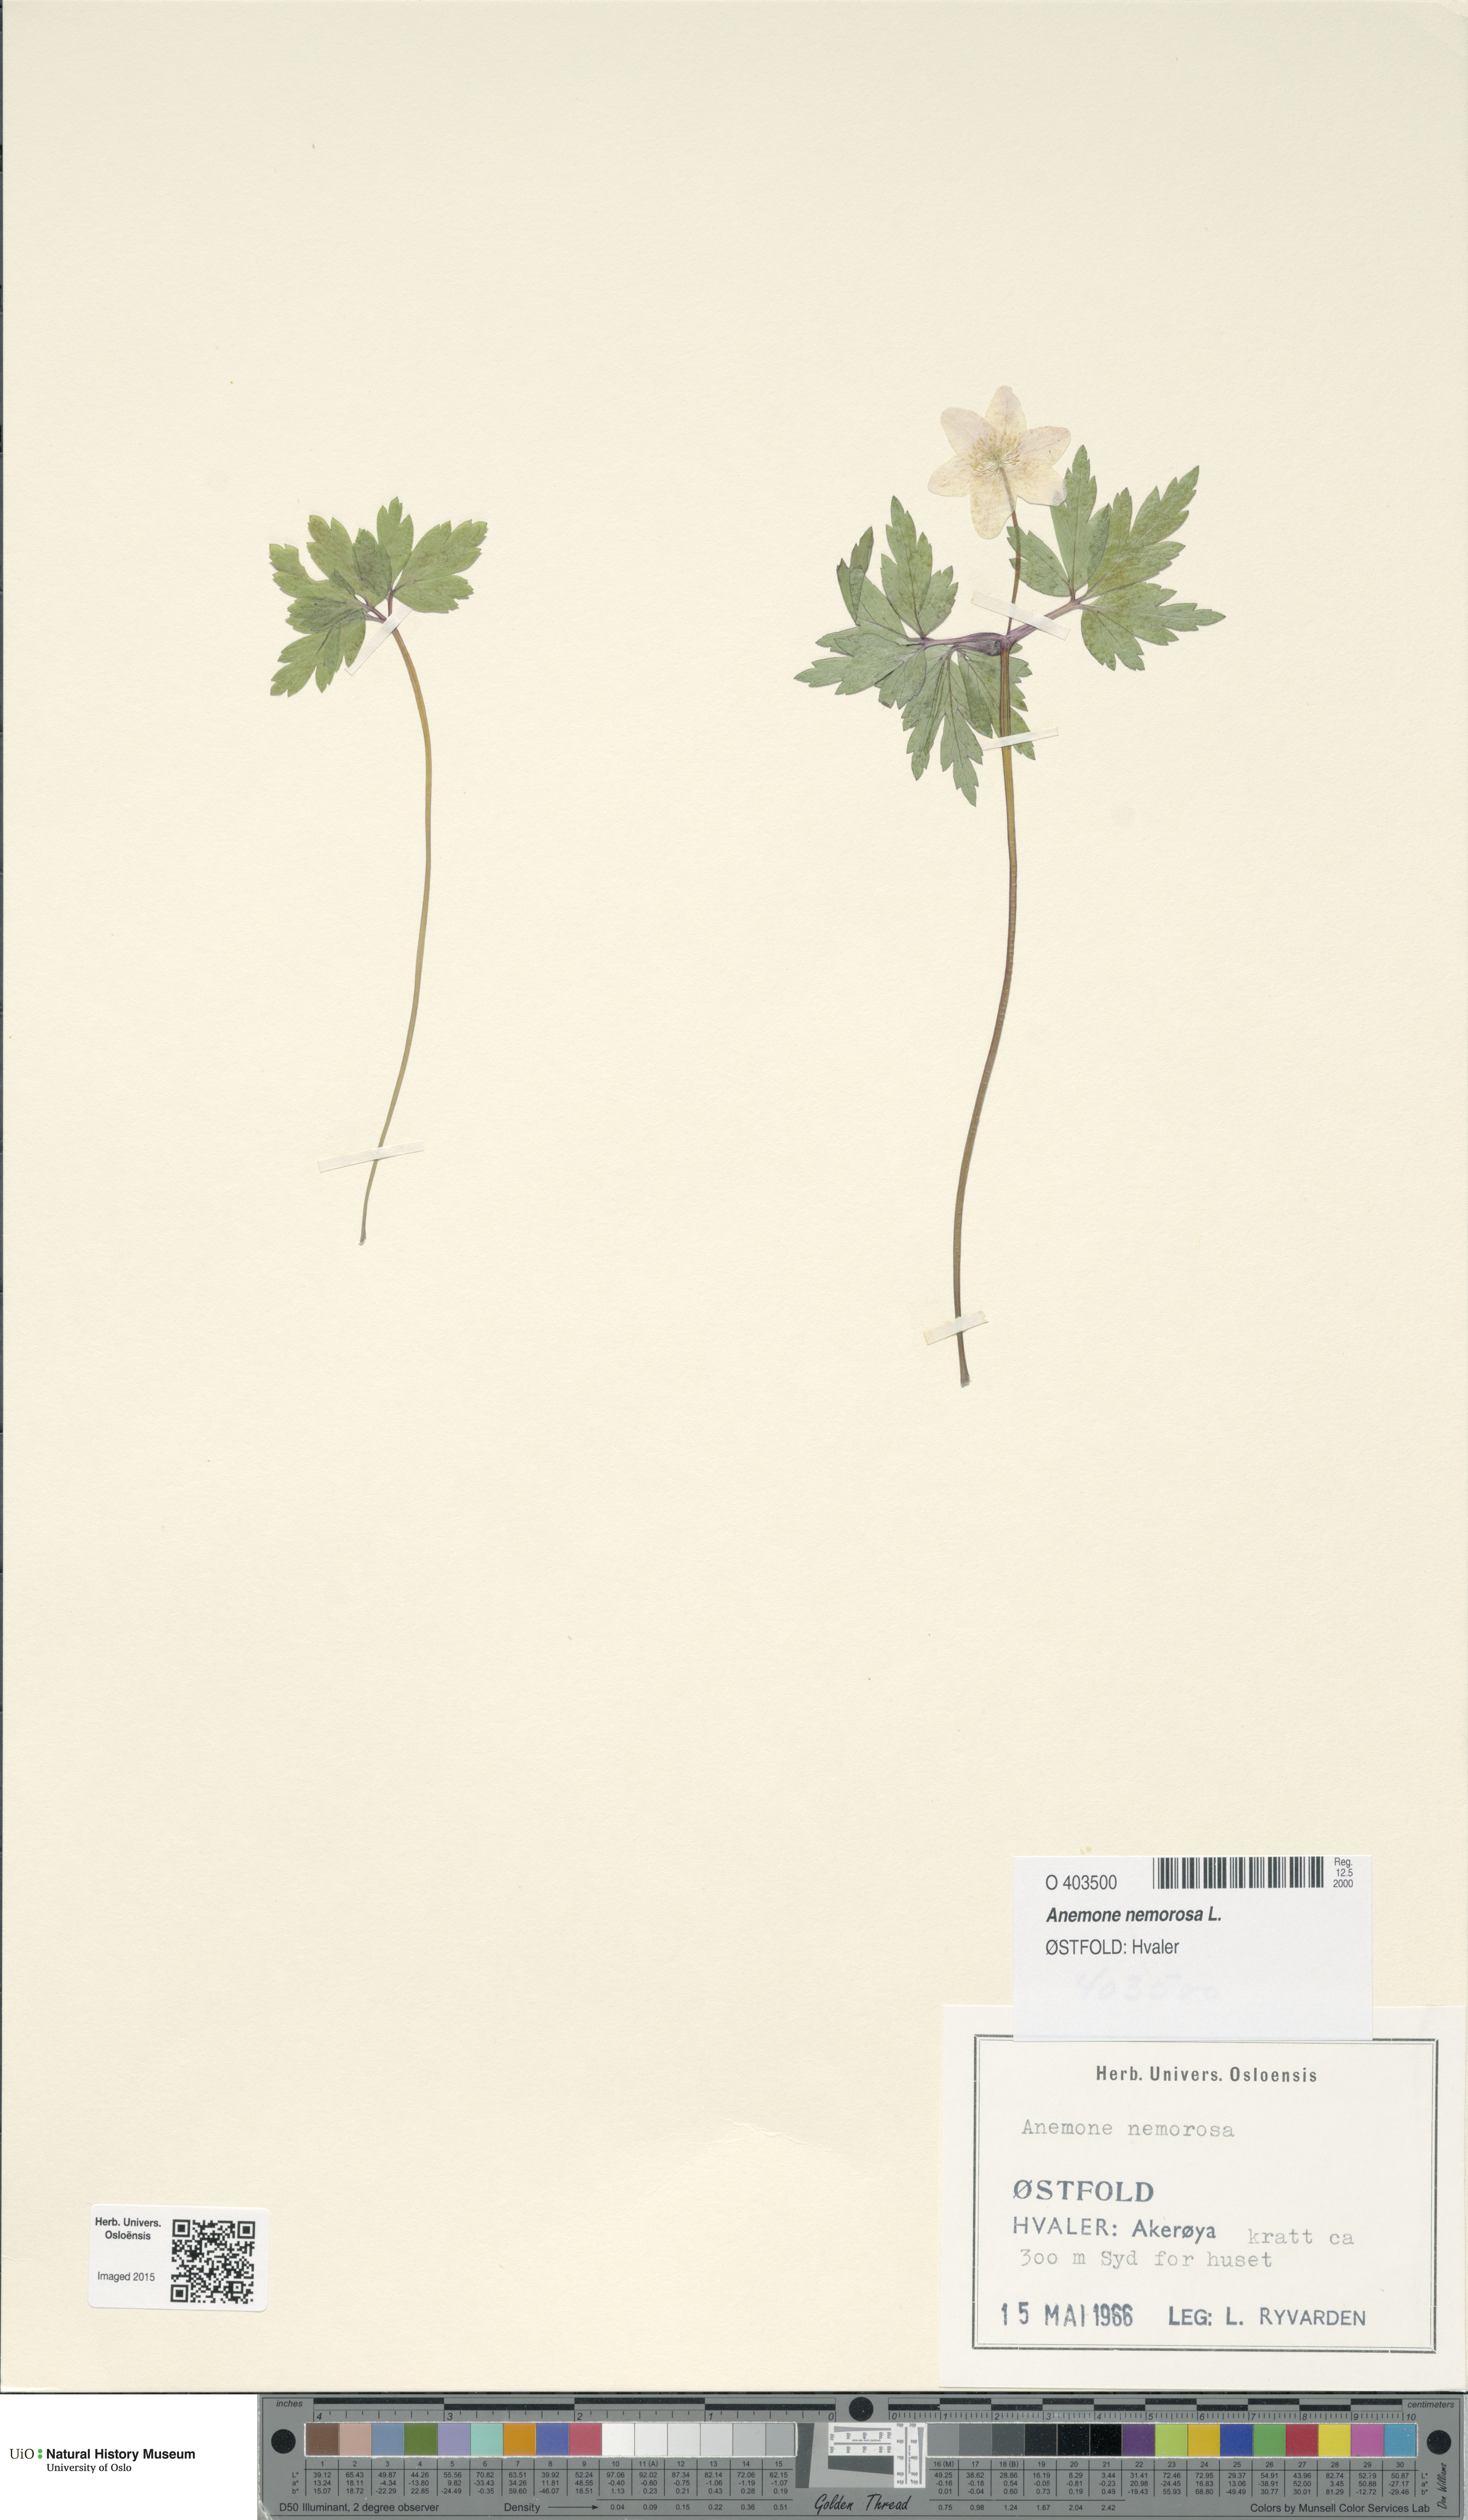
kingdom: Plantae
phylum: Tracheophyta
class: Magnoliopsida
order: Ranunculales
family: Ranunculaceae
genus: Anemone
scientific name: Anemone nemorosa
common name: Wood anemone
